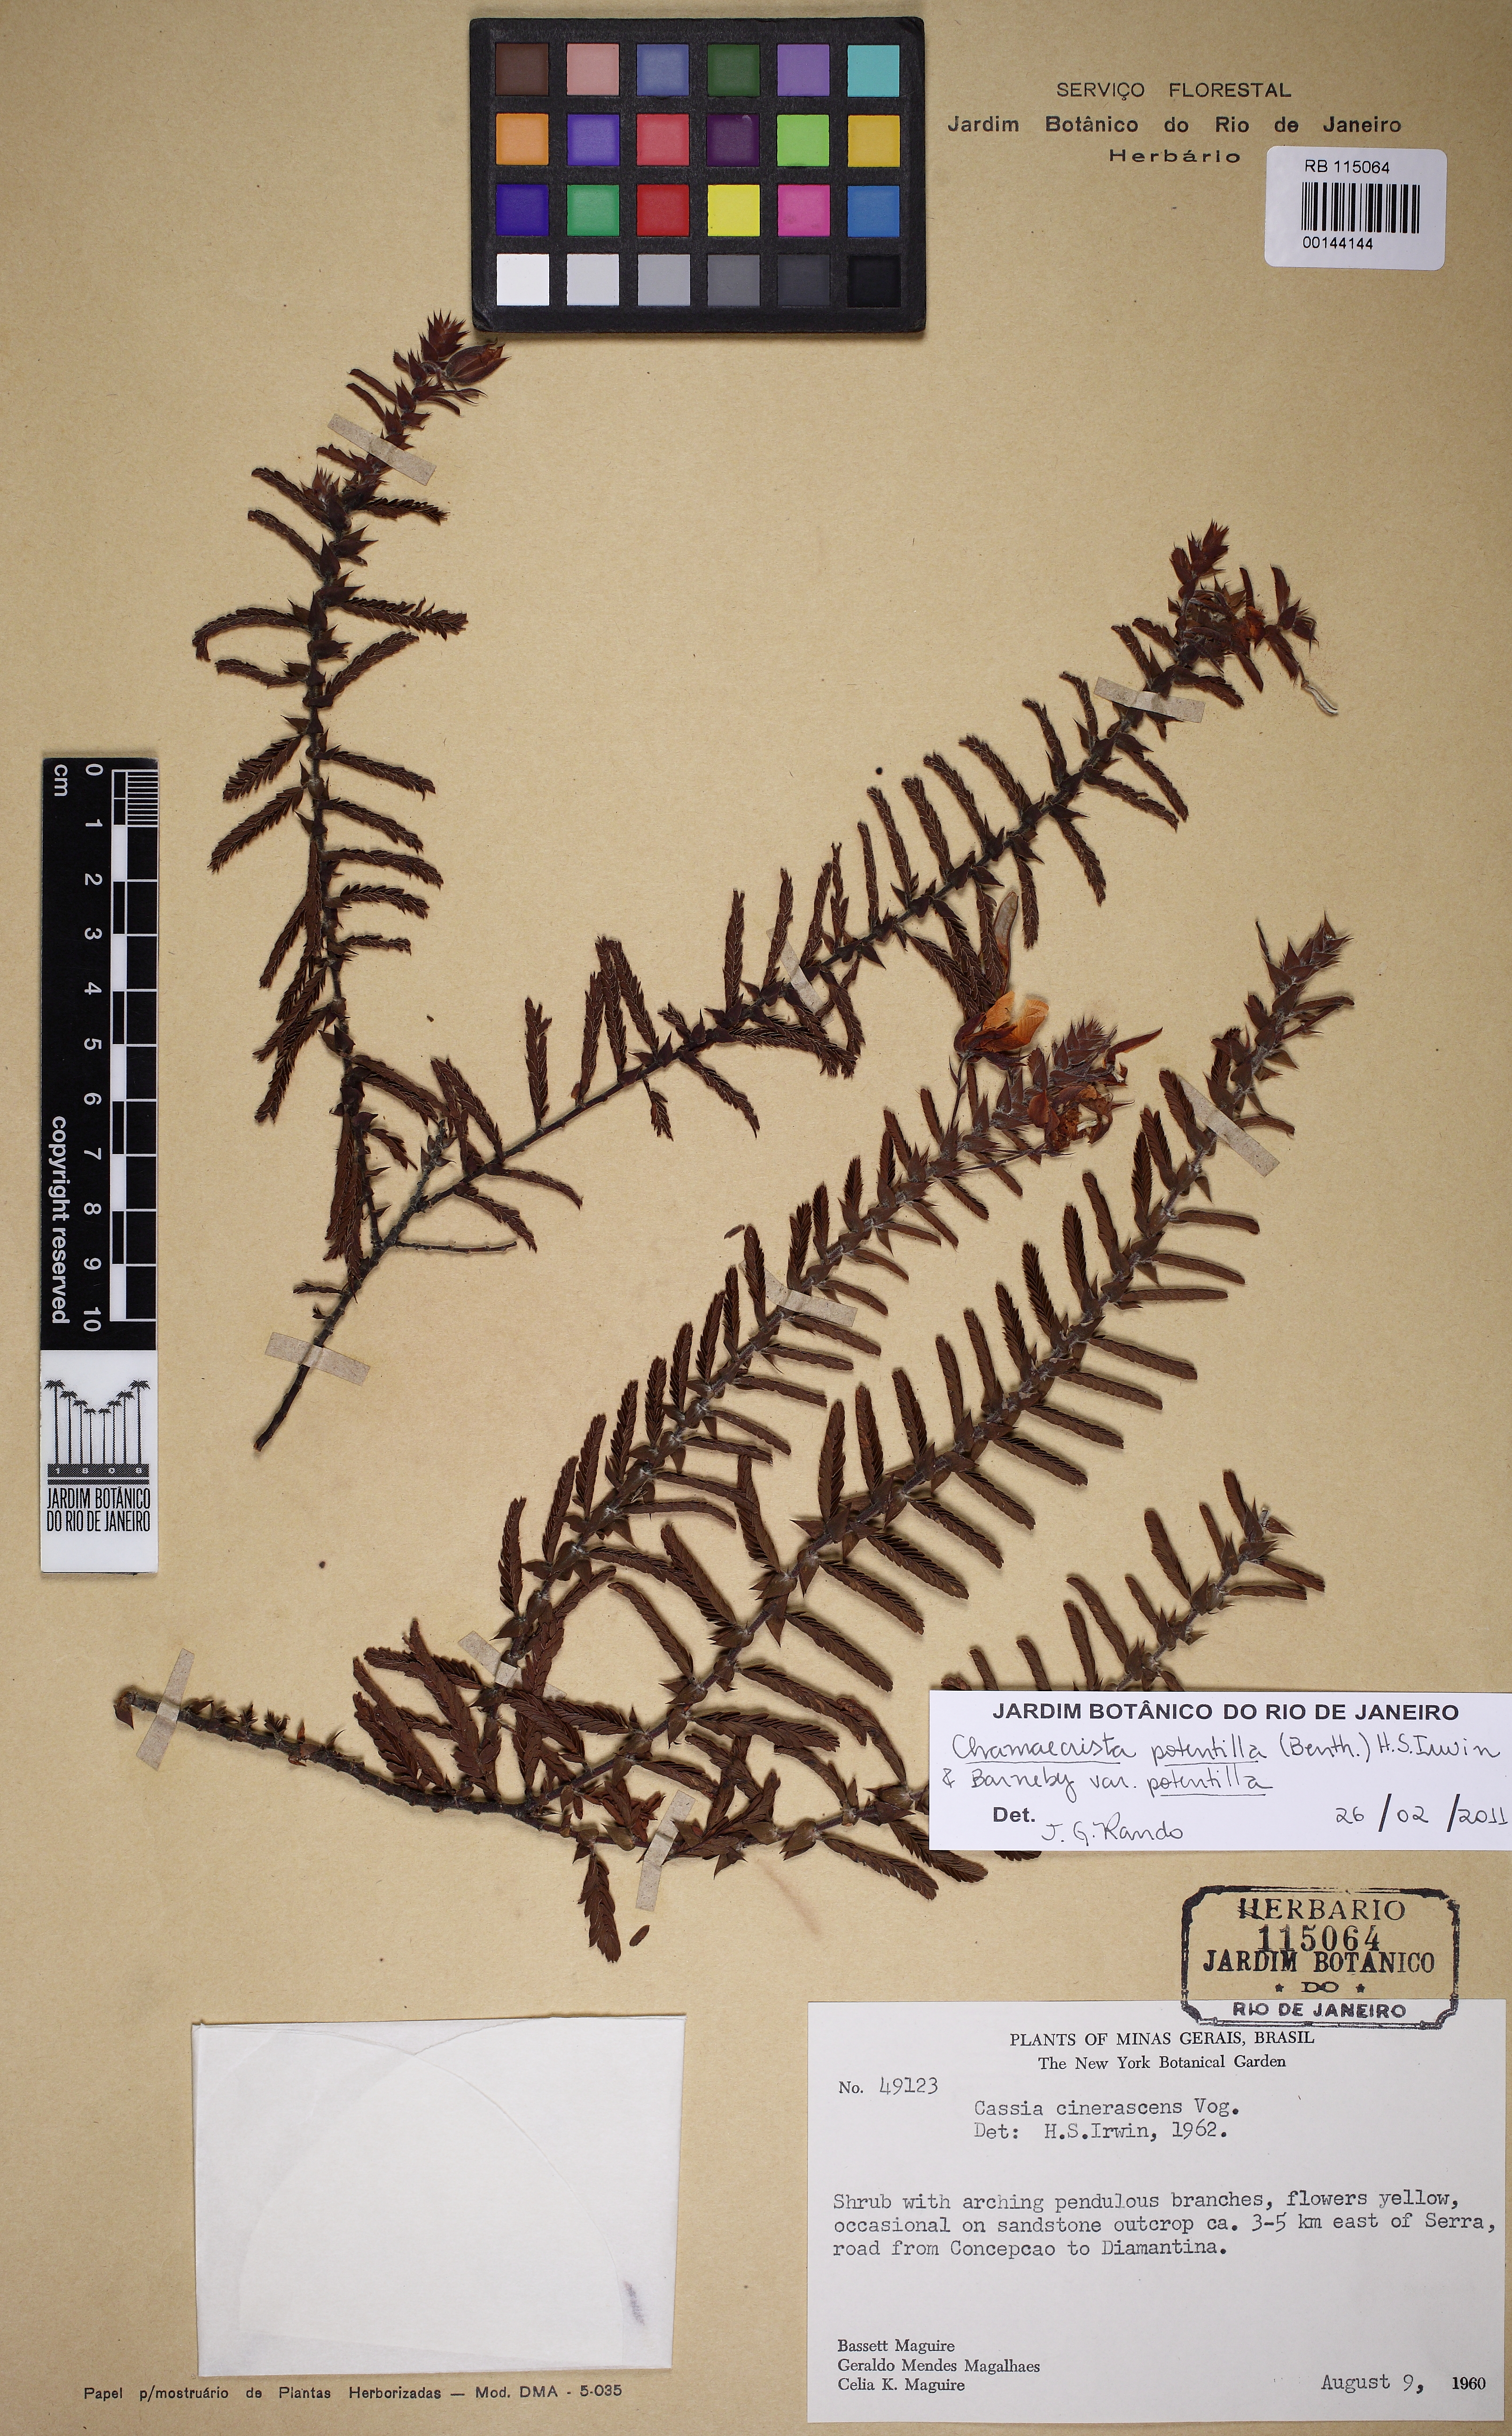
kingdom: Plantae
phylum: Tracheophyta
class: Magnoliopsida
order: Fabales
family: Fabaceae
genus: Chamaecrista
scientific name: Chamaecrista potentilla
